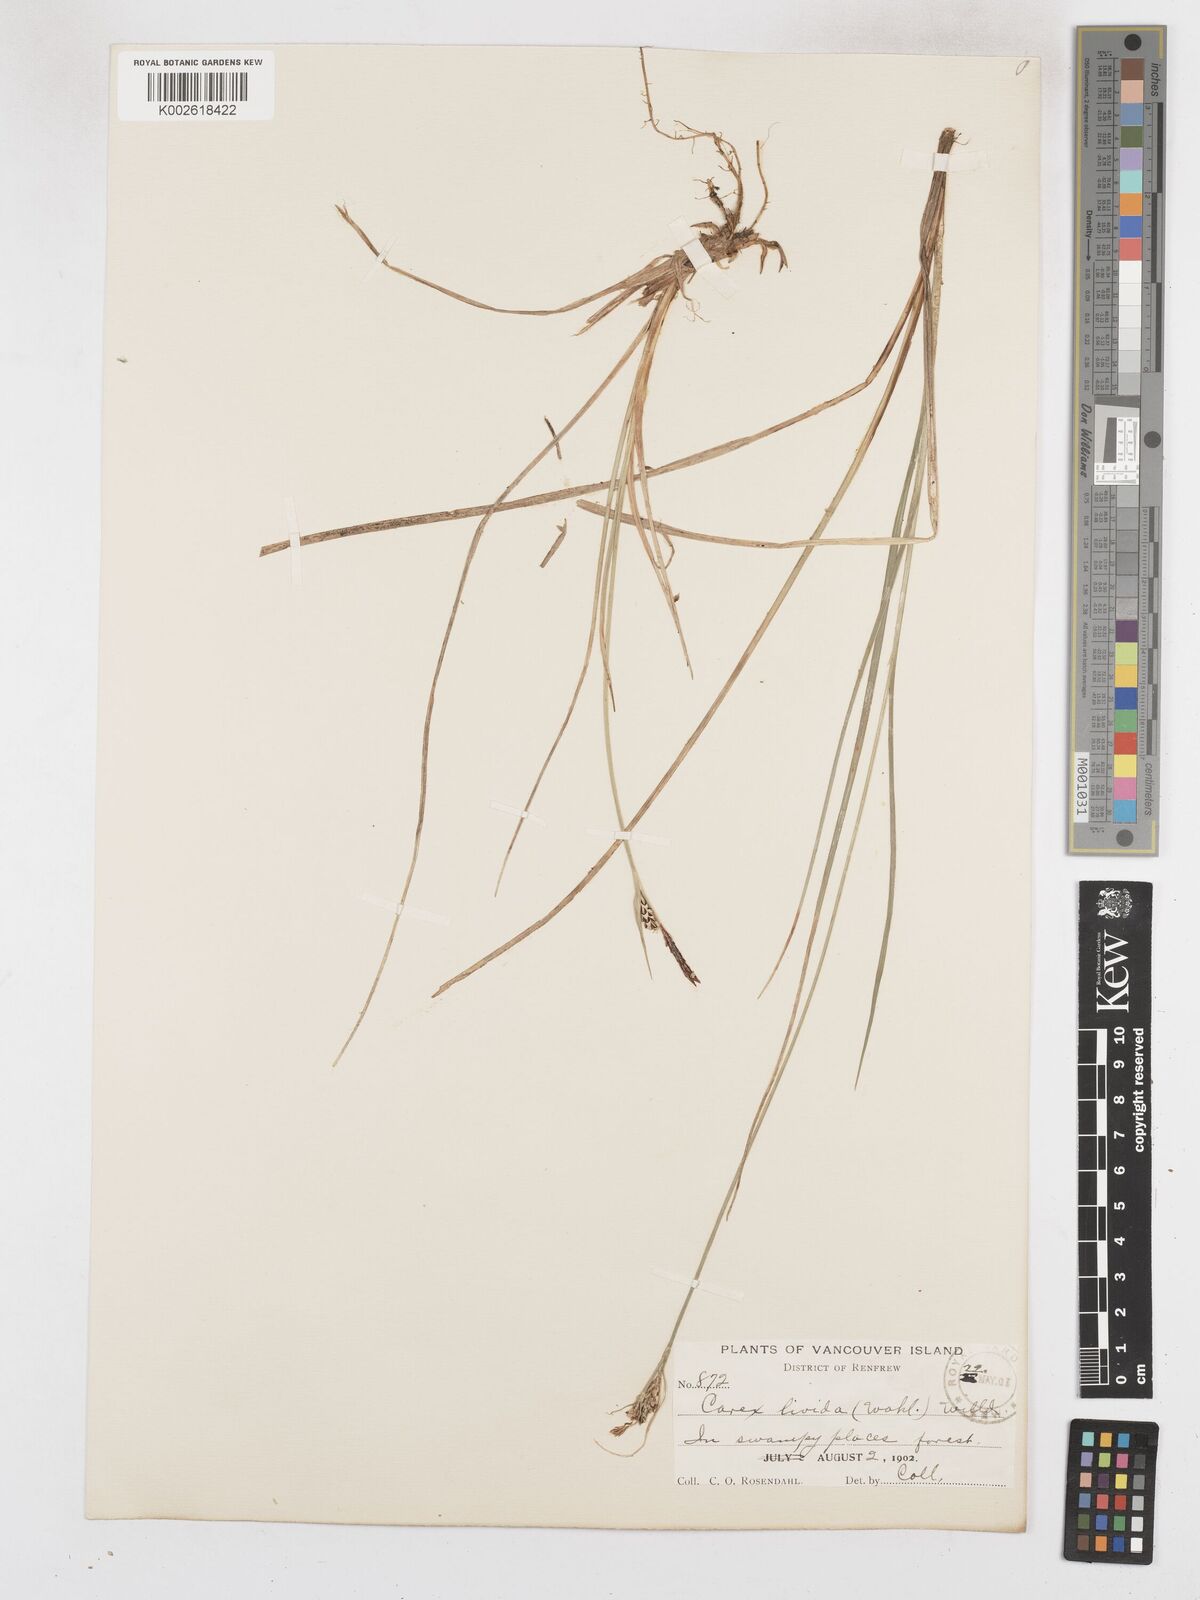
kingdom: Plantae
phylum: Tracheophyta
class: Liliopsida
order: Poales
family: Cyperaceae
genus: Carex
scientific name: Carex livida
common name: Livid sedge
